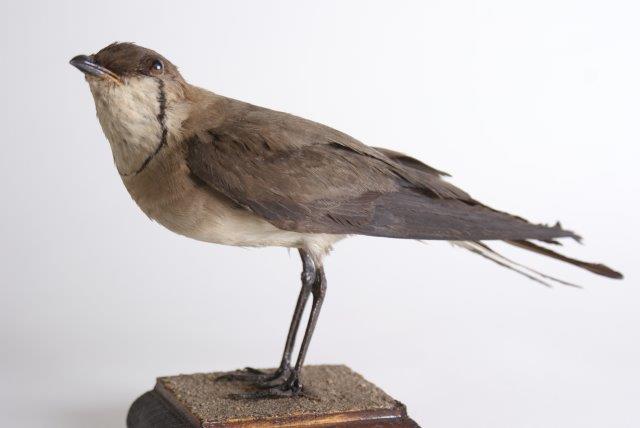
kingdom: Animalia
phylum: Chordata
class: Aves
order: Charadriiformes
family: Glareolidae
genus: Glareola
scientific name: Glareola nordmanni
